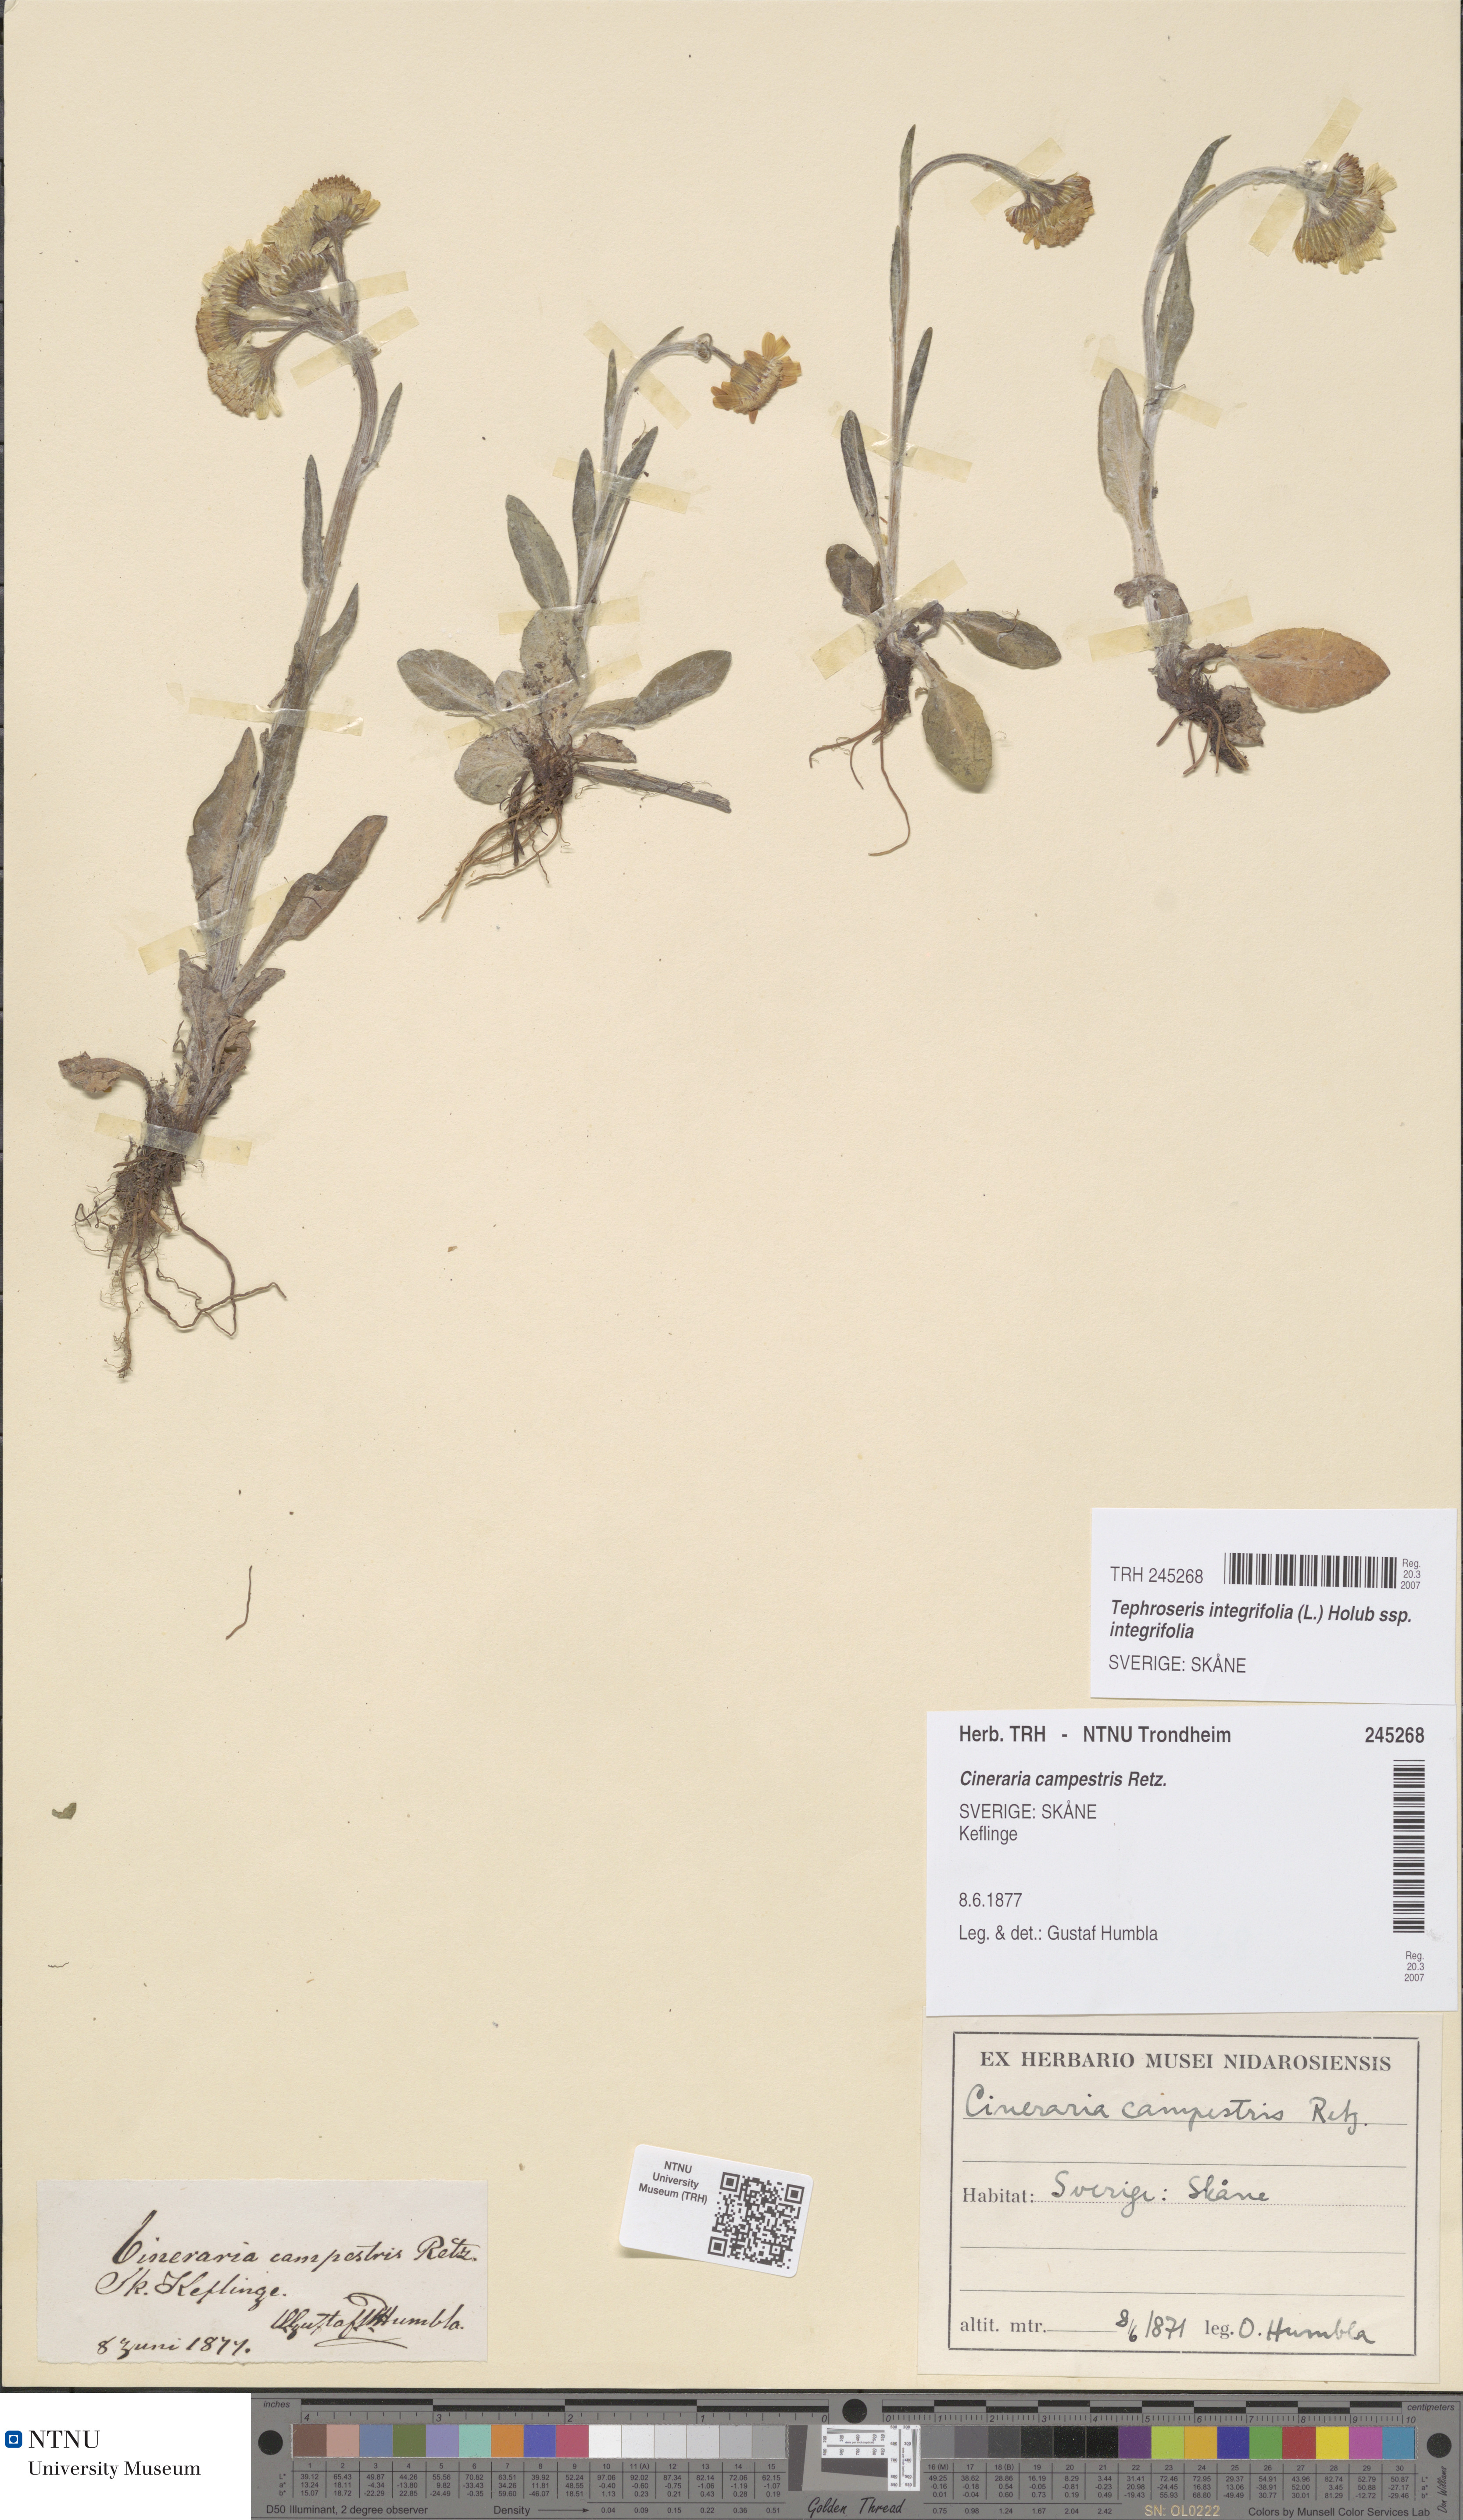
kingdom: Plantae
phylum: Tracheophyta
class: Magnoliopsida
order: Asterales
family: Asteraceae
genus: Tephroseris
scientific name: Tephroseris integrifolia
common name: Field fleawort
